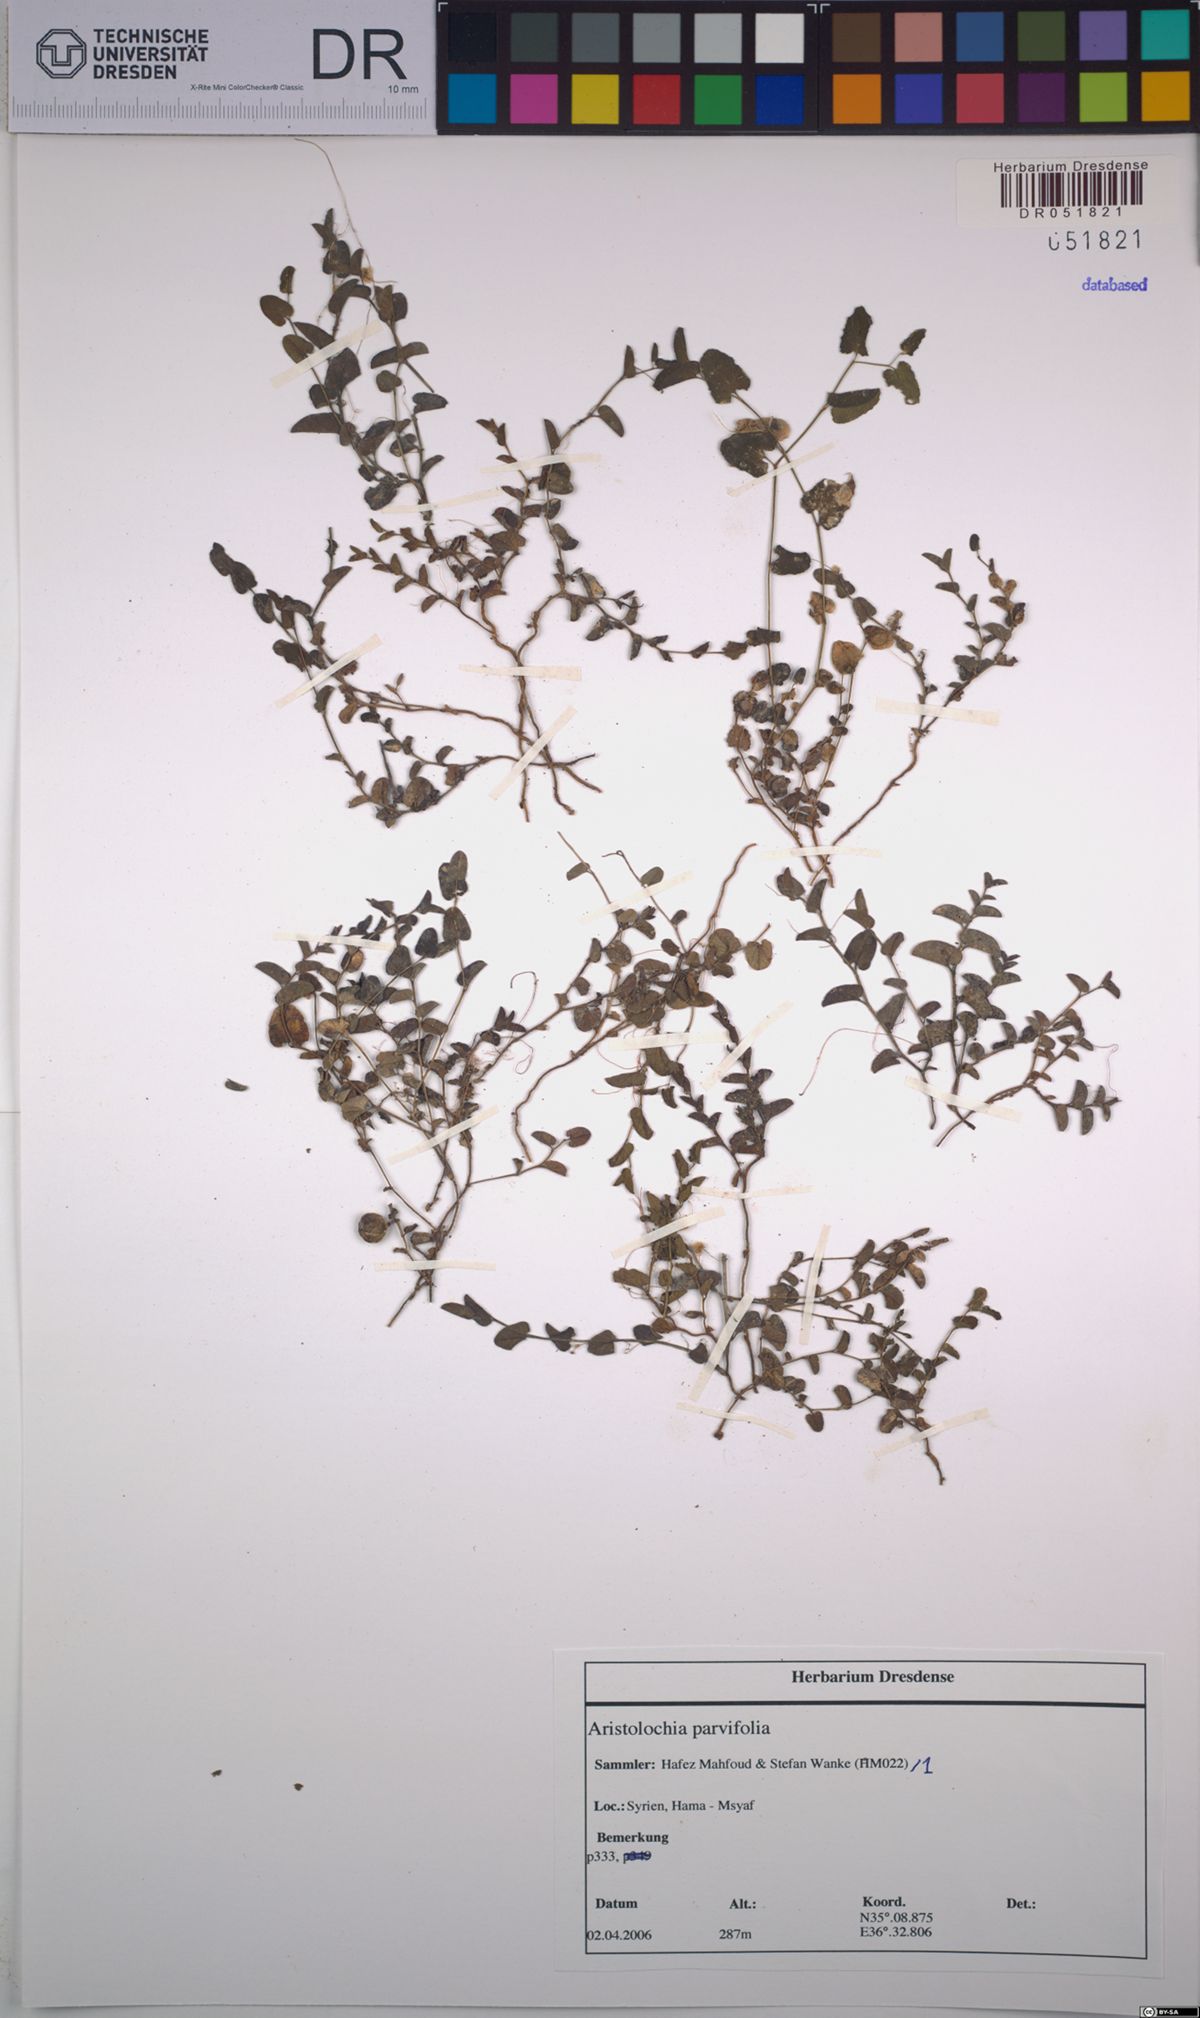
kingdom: Plantae
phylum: Tracheophyta
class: Magnoliopsida
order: Piperales
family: Aristolochiaceae
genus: Aristolochia
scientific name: Aristolochia parvifolia
